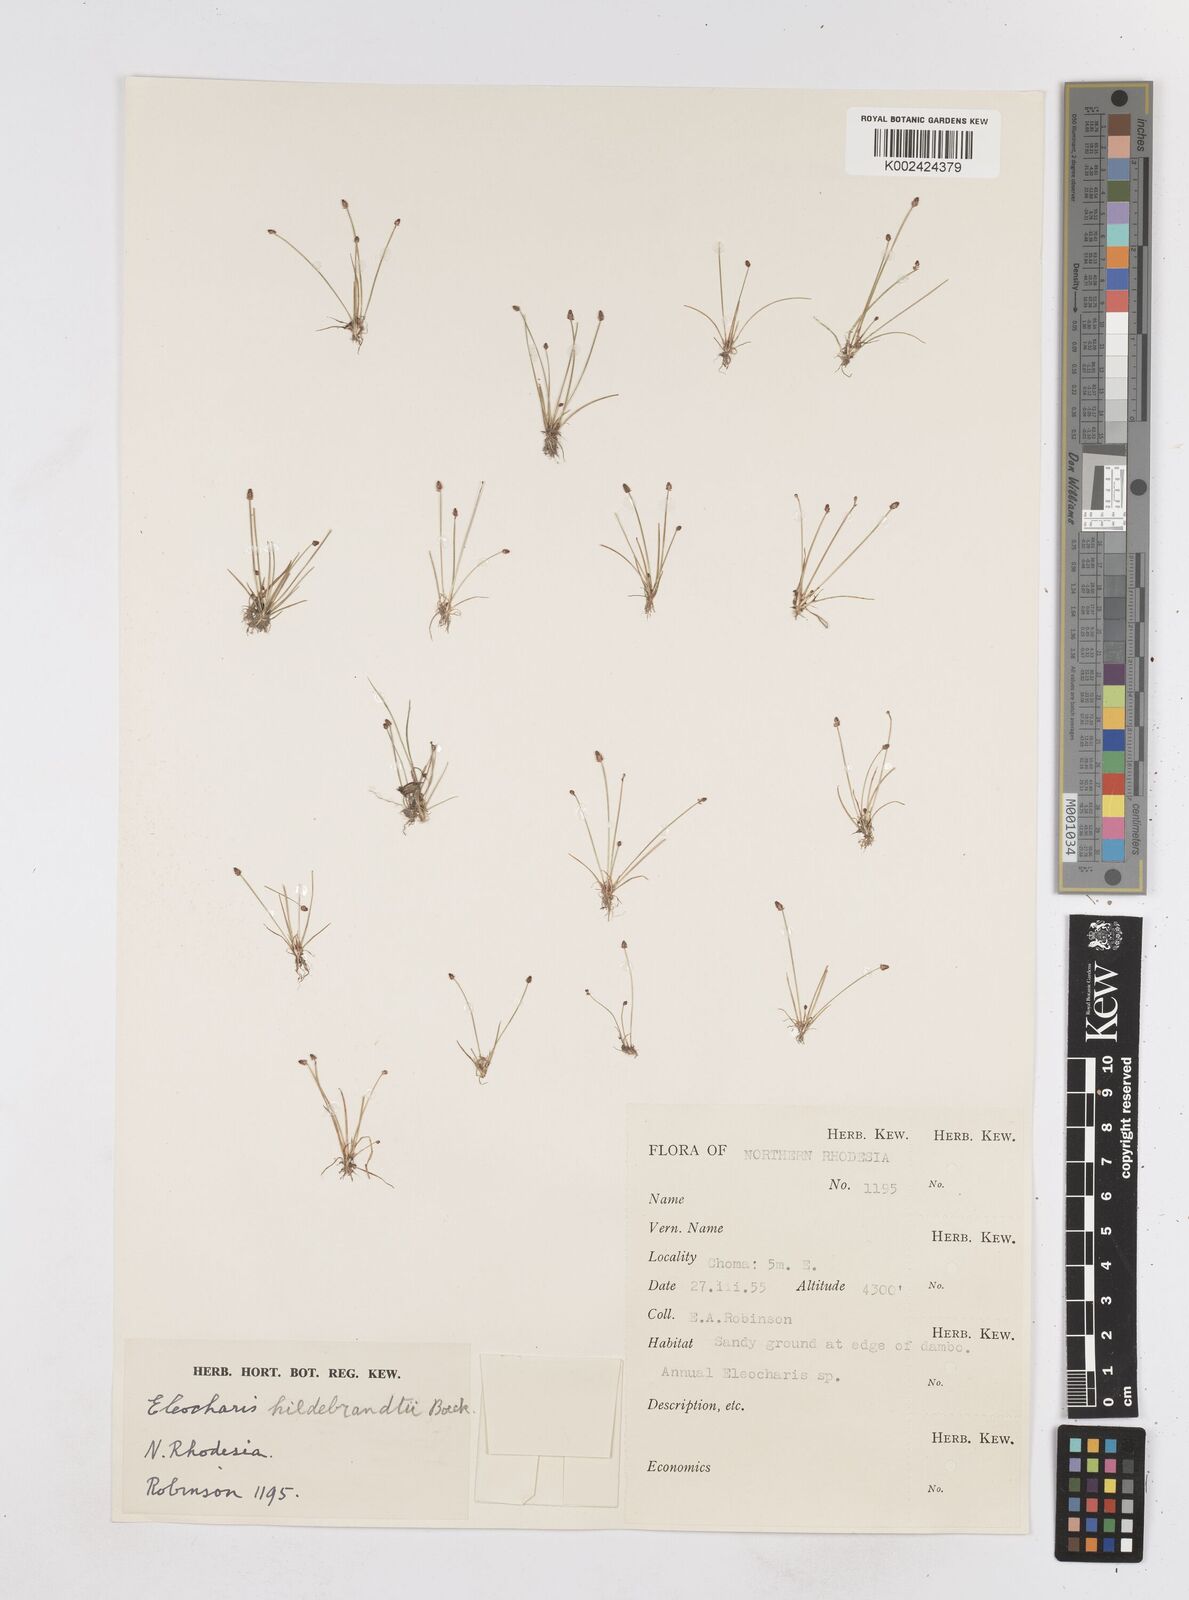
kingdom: Plantae
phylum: Tracheophyta
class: Liliopsida
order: Poales
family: Cyperaceae
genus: Eleocharis
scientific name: Eleocharis nigrescens
